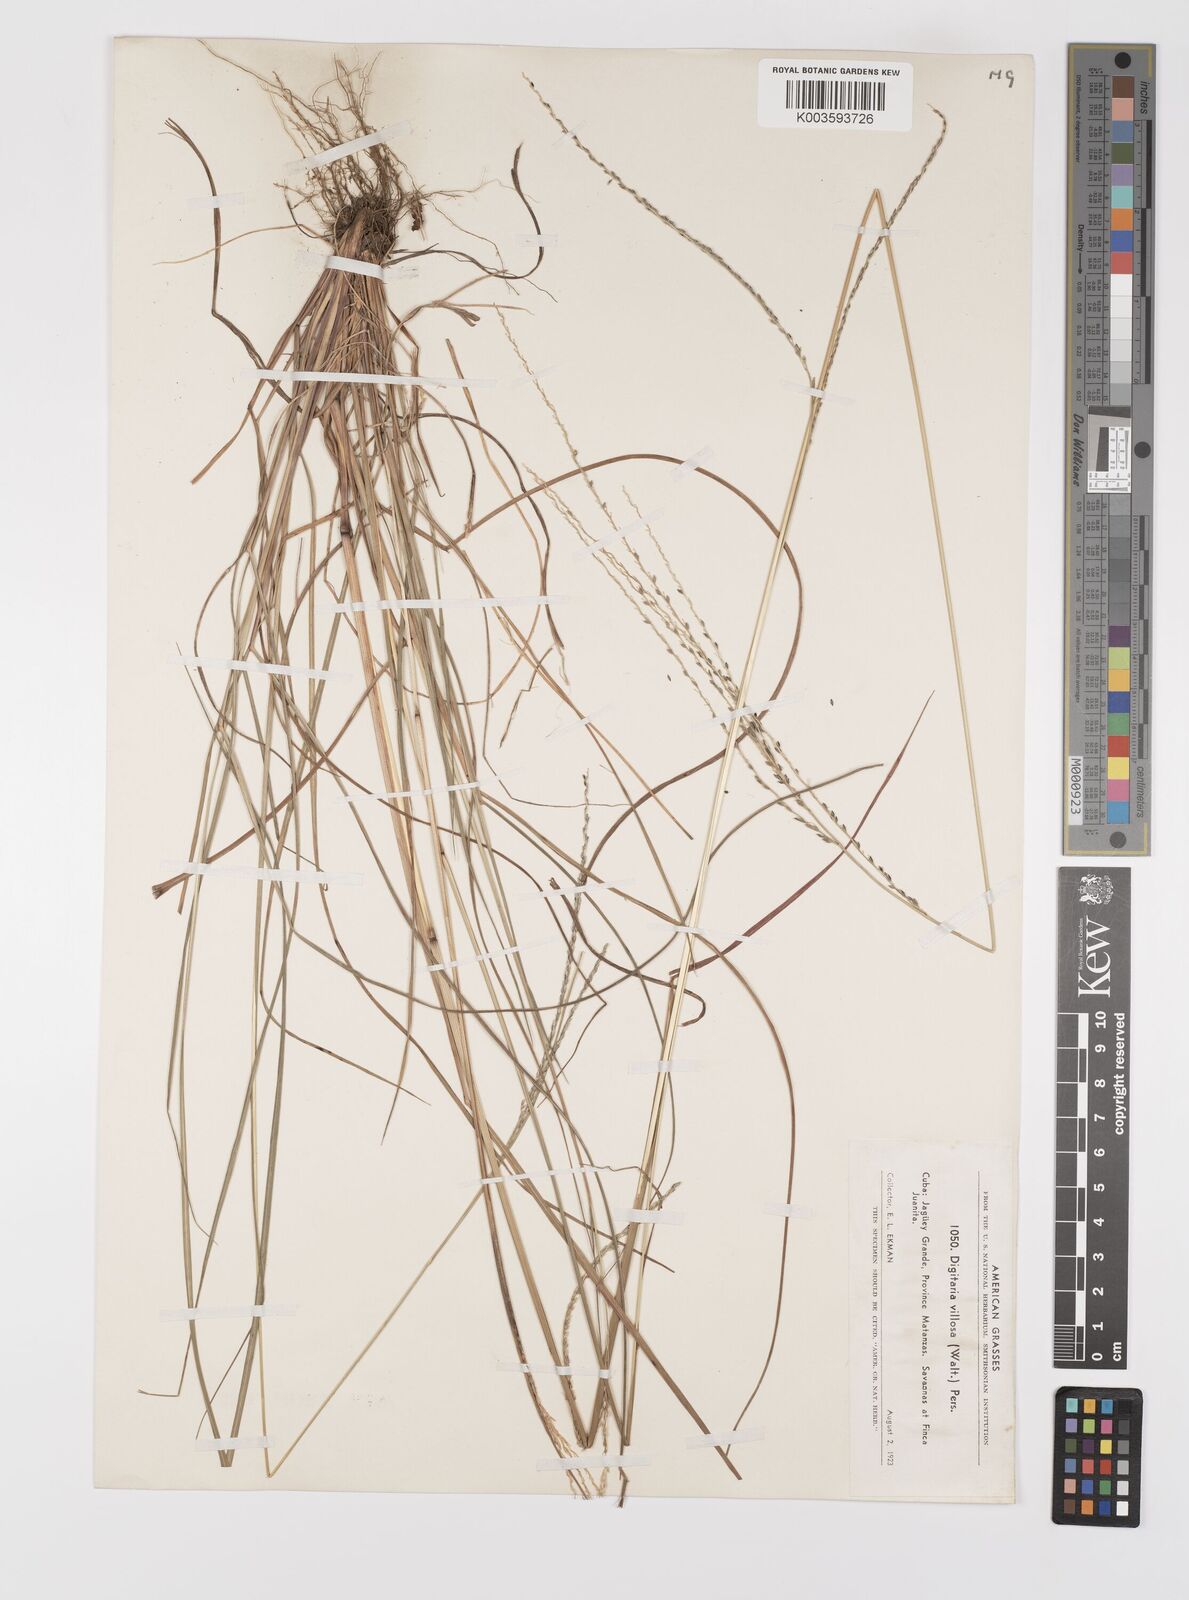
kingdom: Plantae
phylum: Tracheophyta
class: Liliopsida
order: Poales
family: Poaceae
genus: Digitaria
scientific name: Digitaria villosa
